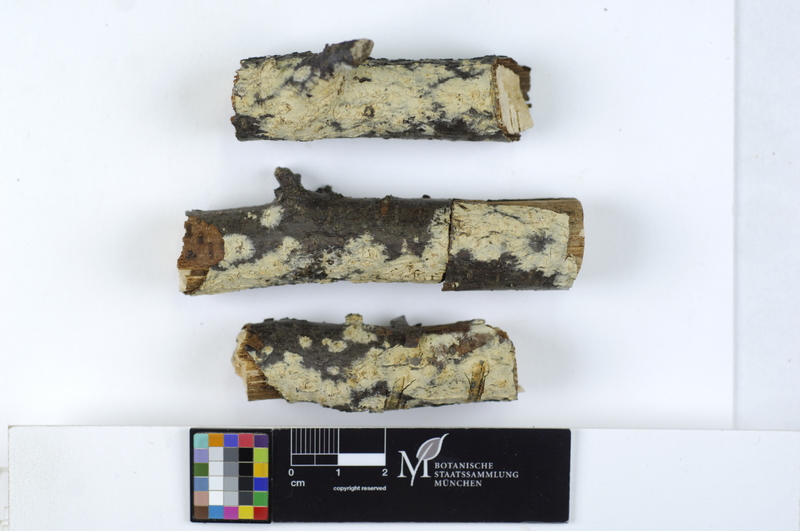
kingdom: Fungi
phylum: Basidiomycota
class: Agaricomycetes
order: Russulales
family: Stereaceae
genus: Gloeocystidiellum
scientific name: Gloeocystidiellum porosum
